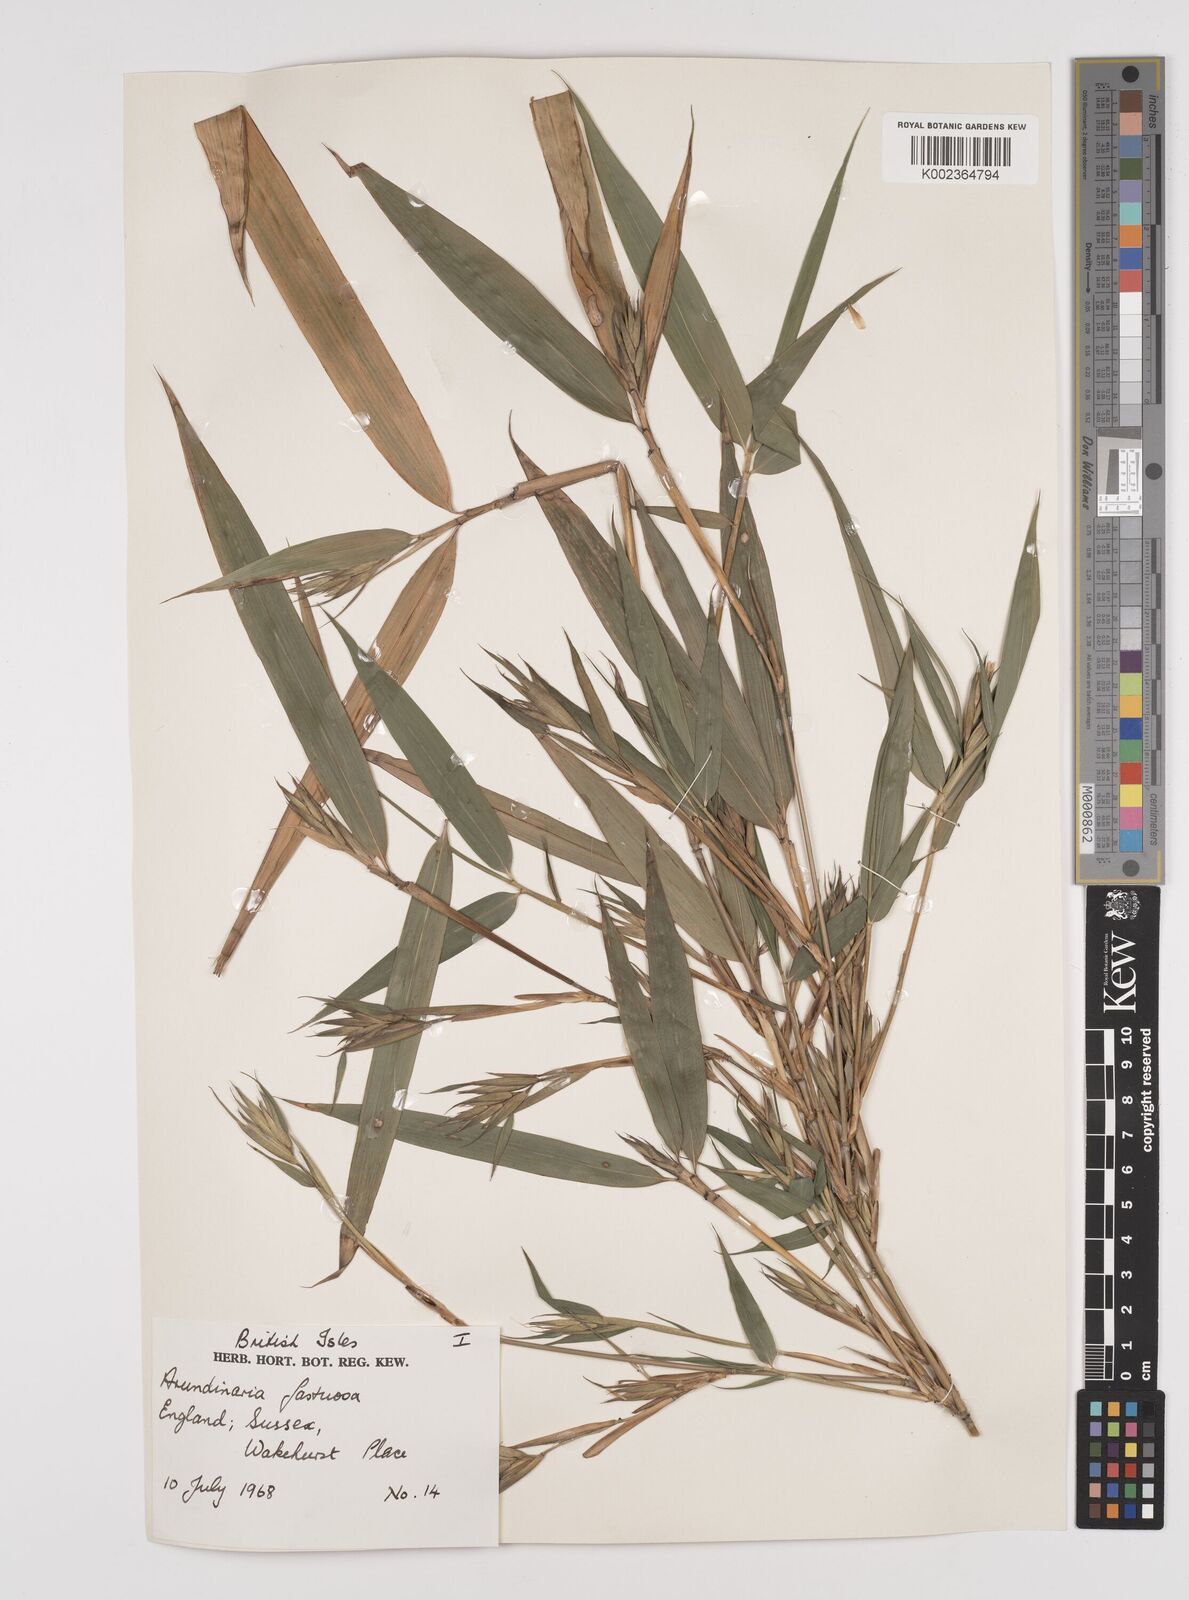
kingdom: Plantae
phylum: Tracheophyta
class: Liliopsida
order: Poales
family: Poaceae
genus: Semiarundinaria
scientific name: Semiarundinaria
